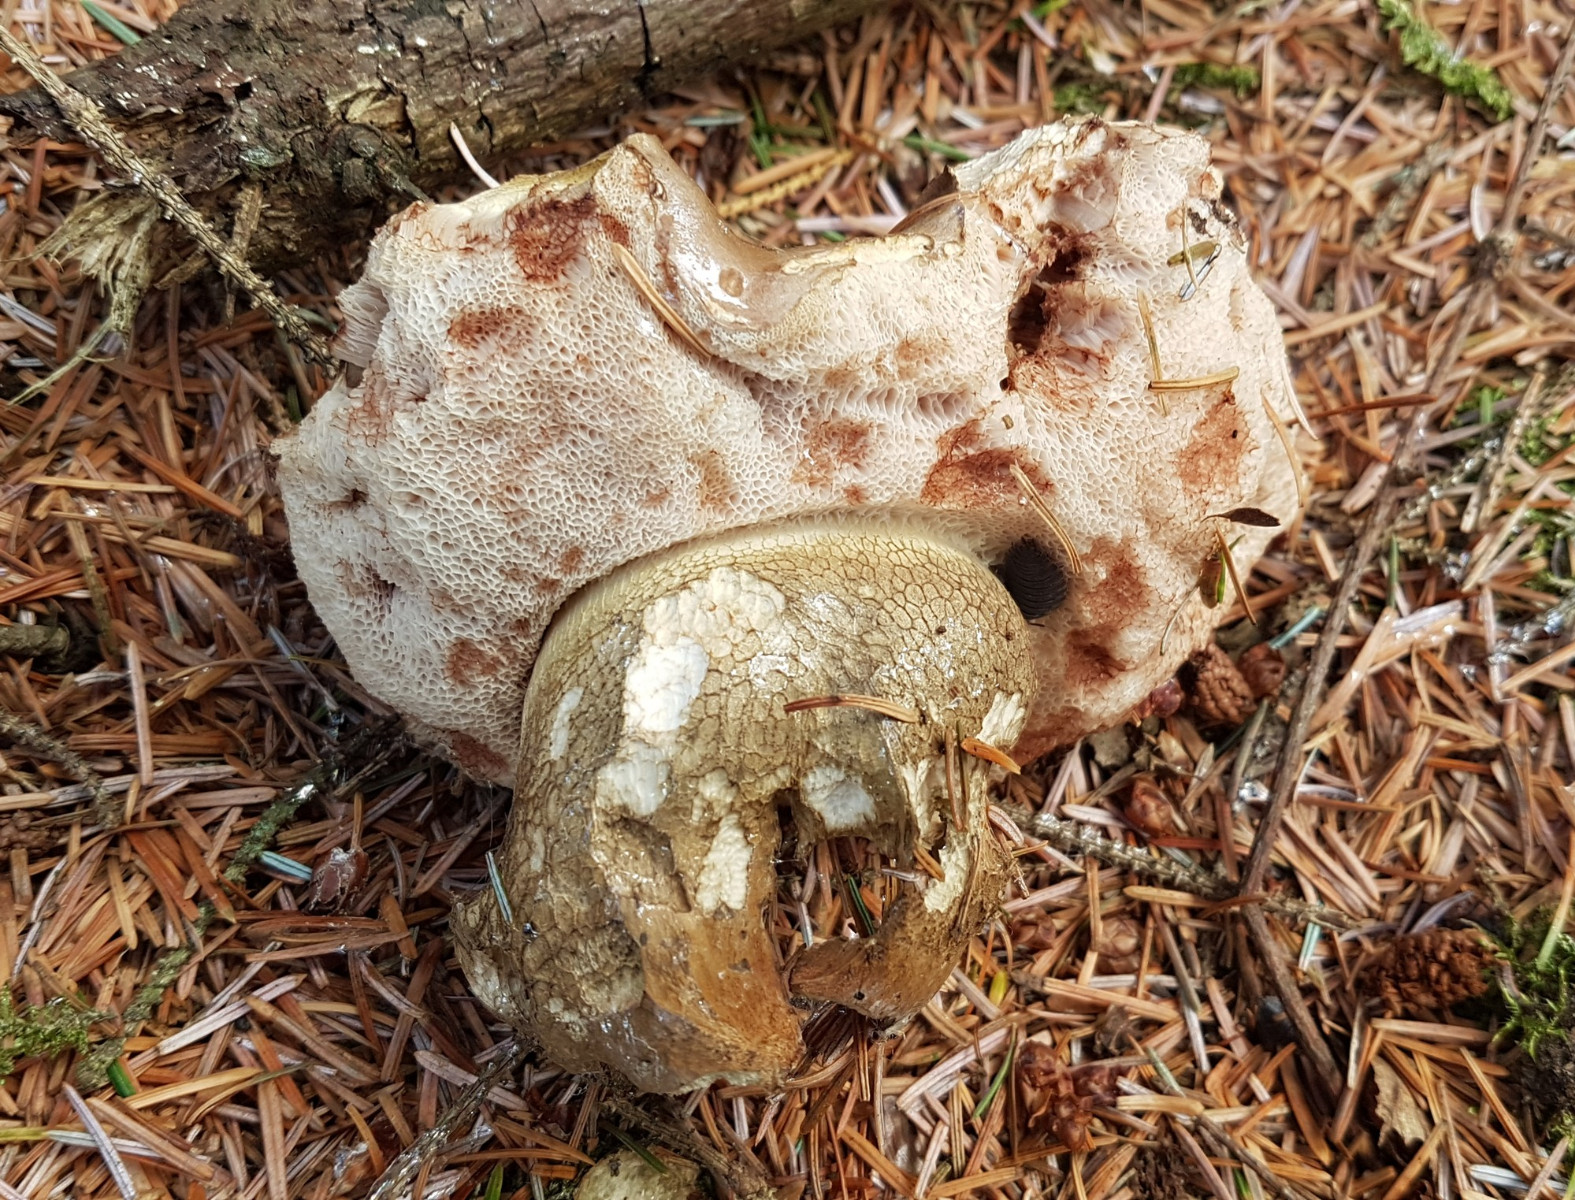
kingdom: Fungi
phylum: Basidiomycota
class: Agaricomycetes
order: Boletales
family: Boletaceae
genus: Tylopilus
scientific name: Tylopilus felleus
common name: galderørhat
